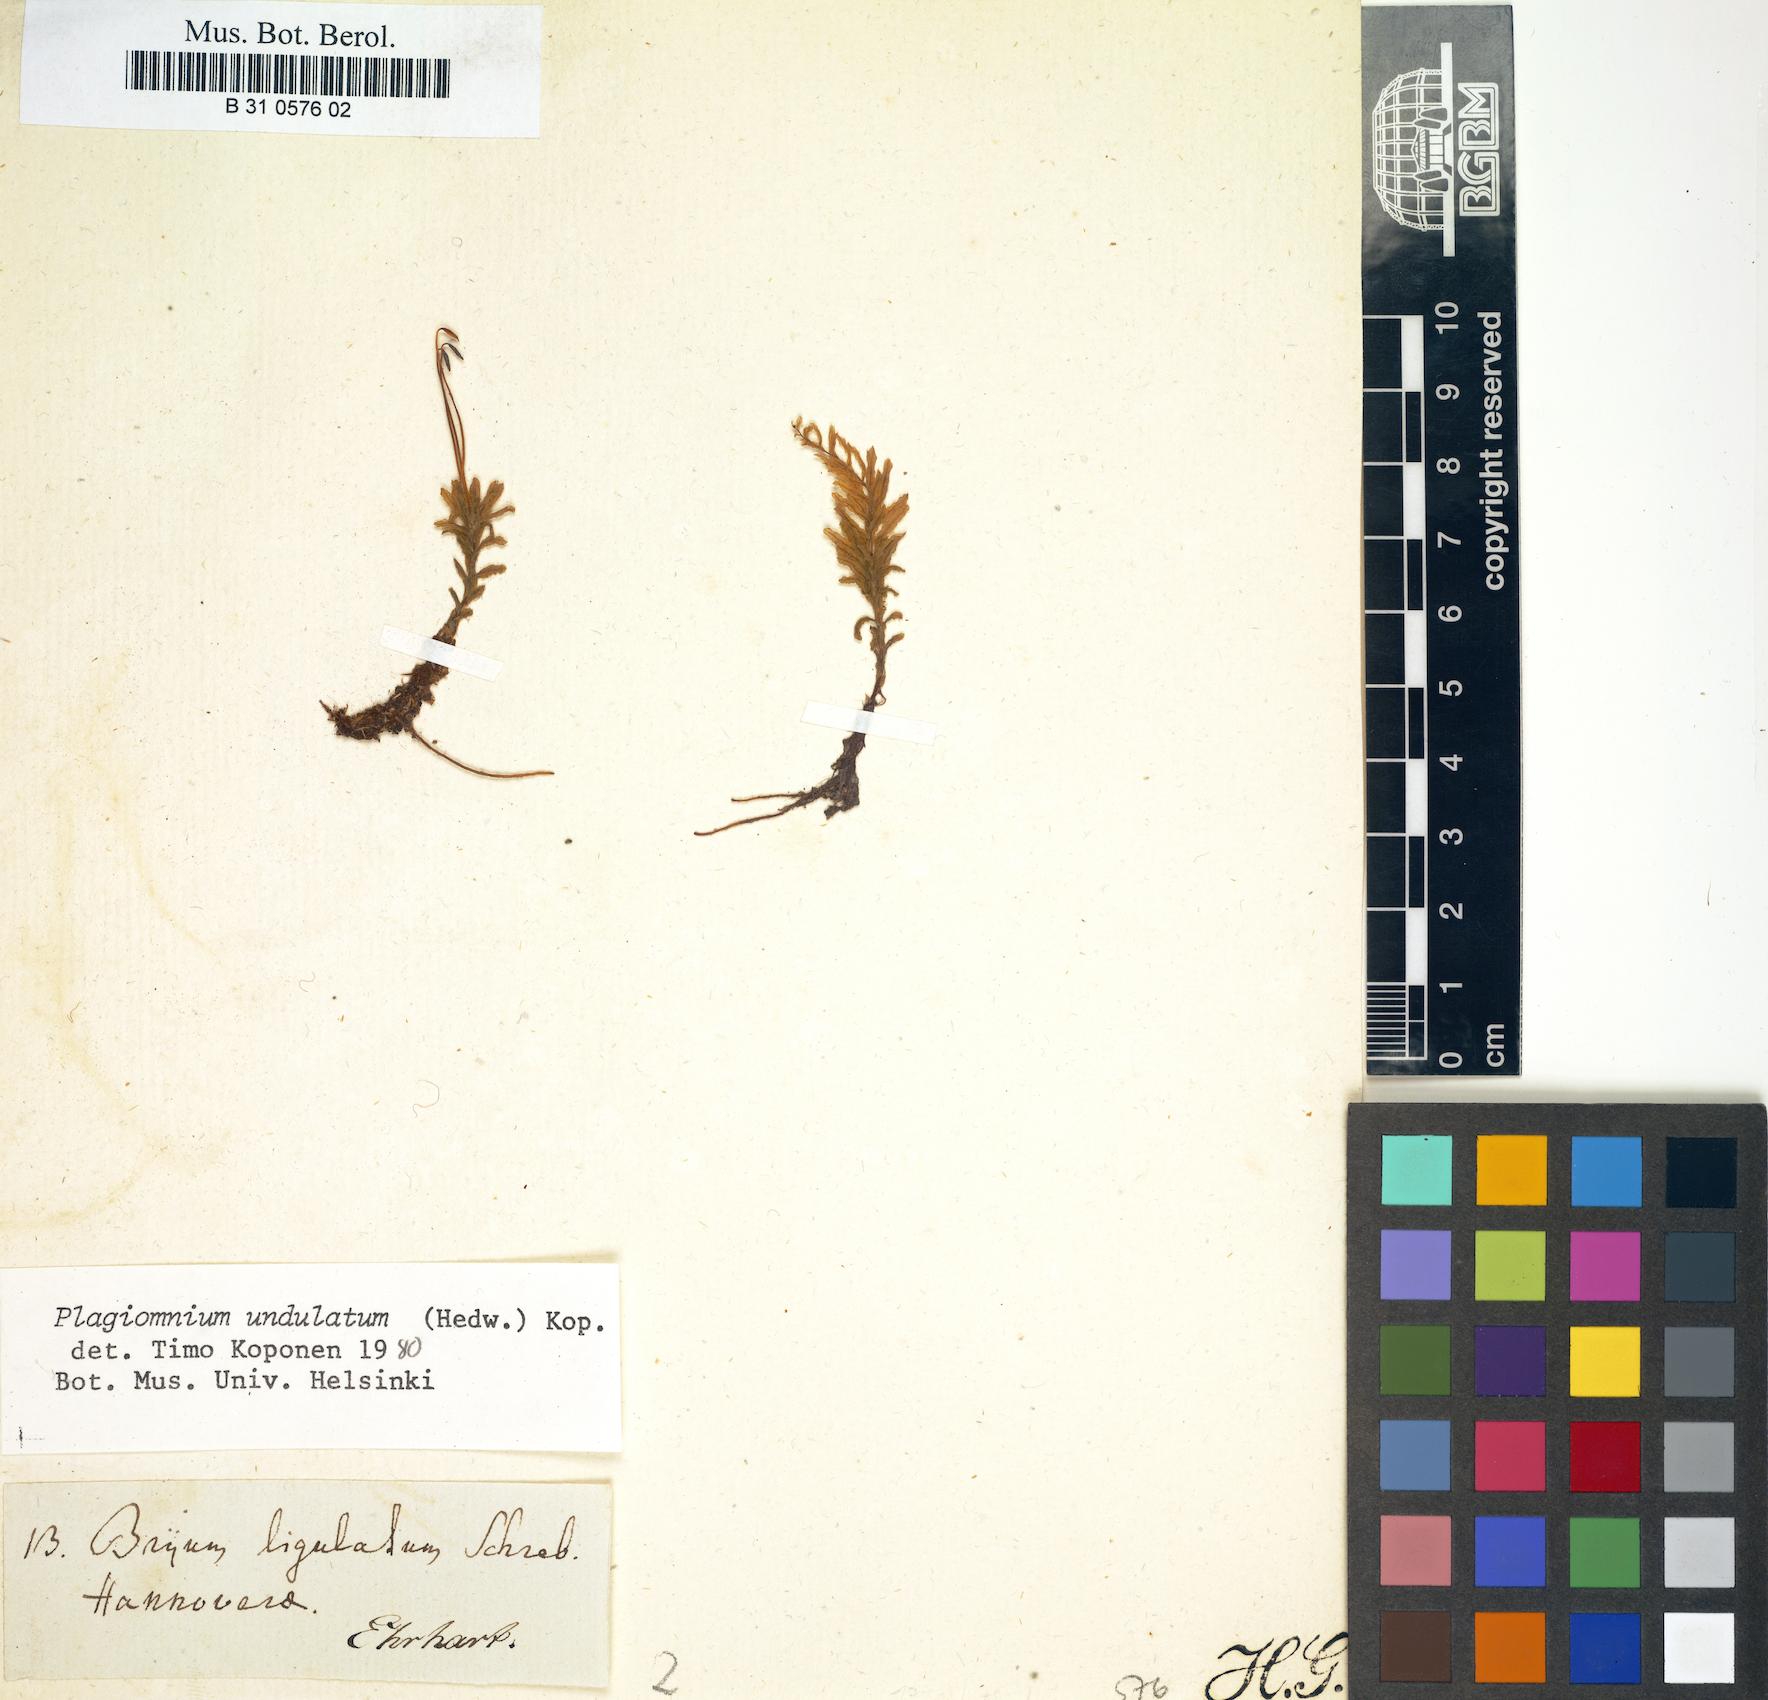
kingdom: Plantae
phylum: Bryophyta
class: Bryopsida
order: Bryales
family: Mniaceae
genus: Plagiomnium
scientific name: Plagiomnium undulatum
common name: Hart's-tongue thyme-moss
